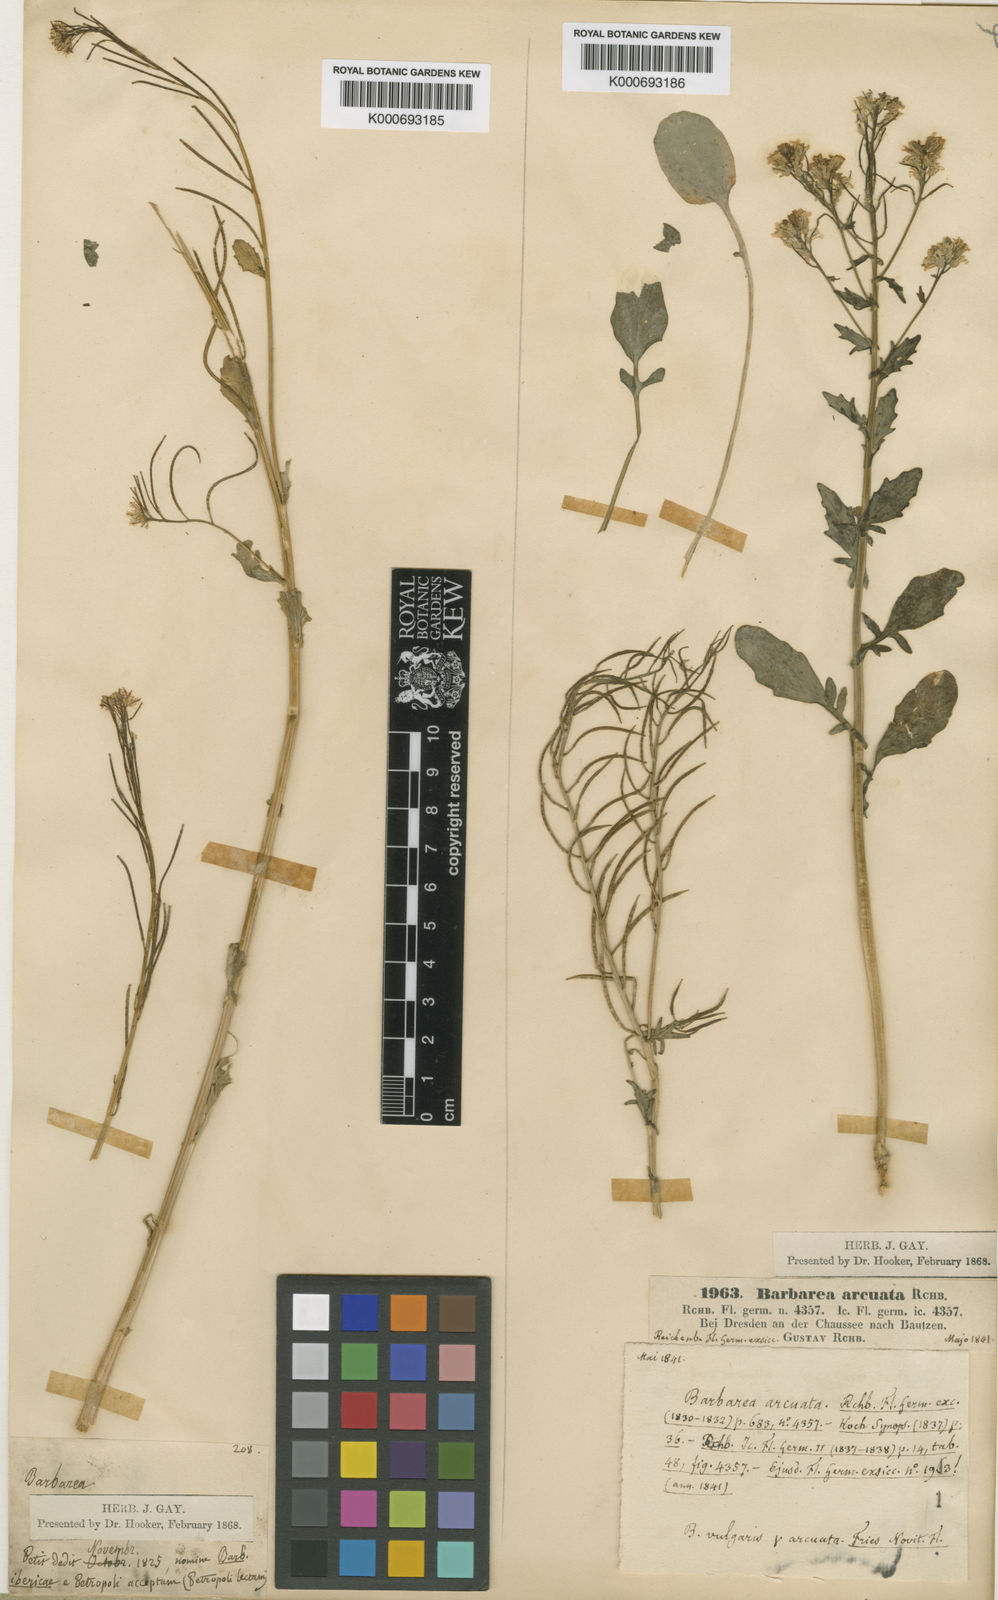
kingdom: Plantae
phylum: Tracheophyta
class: Magnoliopsida
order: Brassicales
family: Brassicaceae
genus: Barbarea
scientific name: Barbarea
